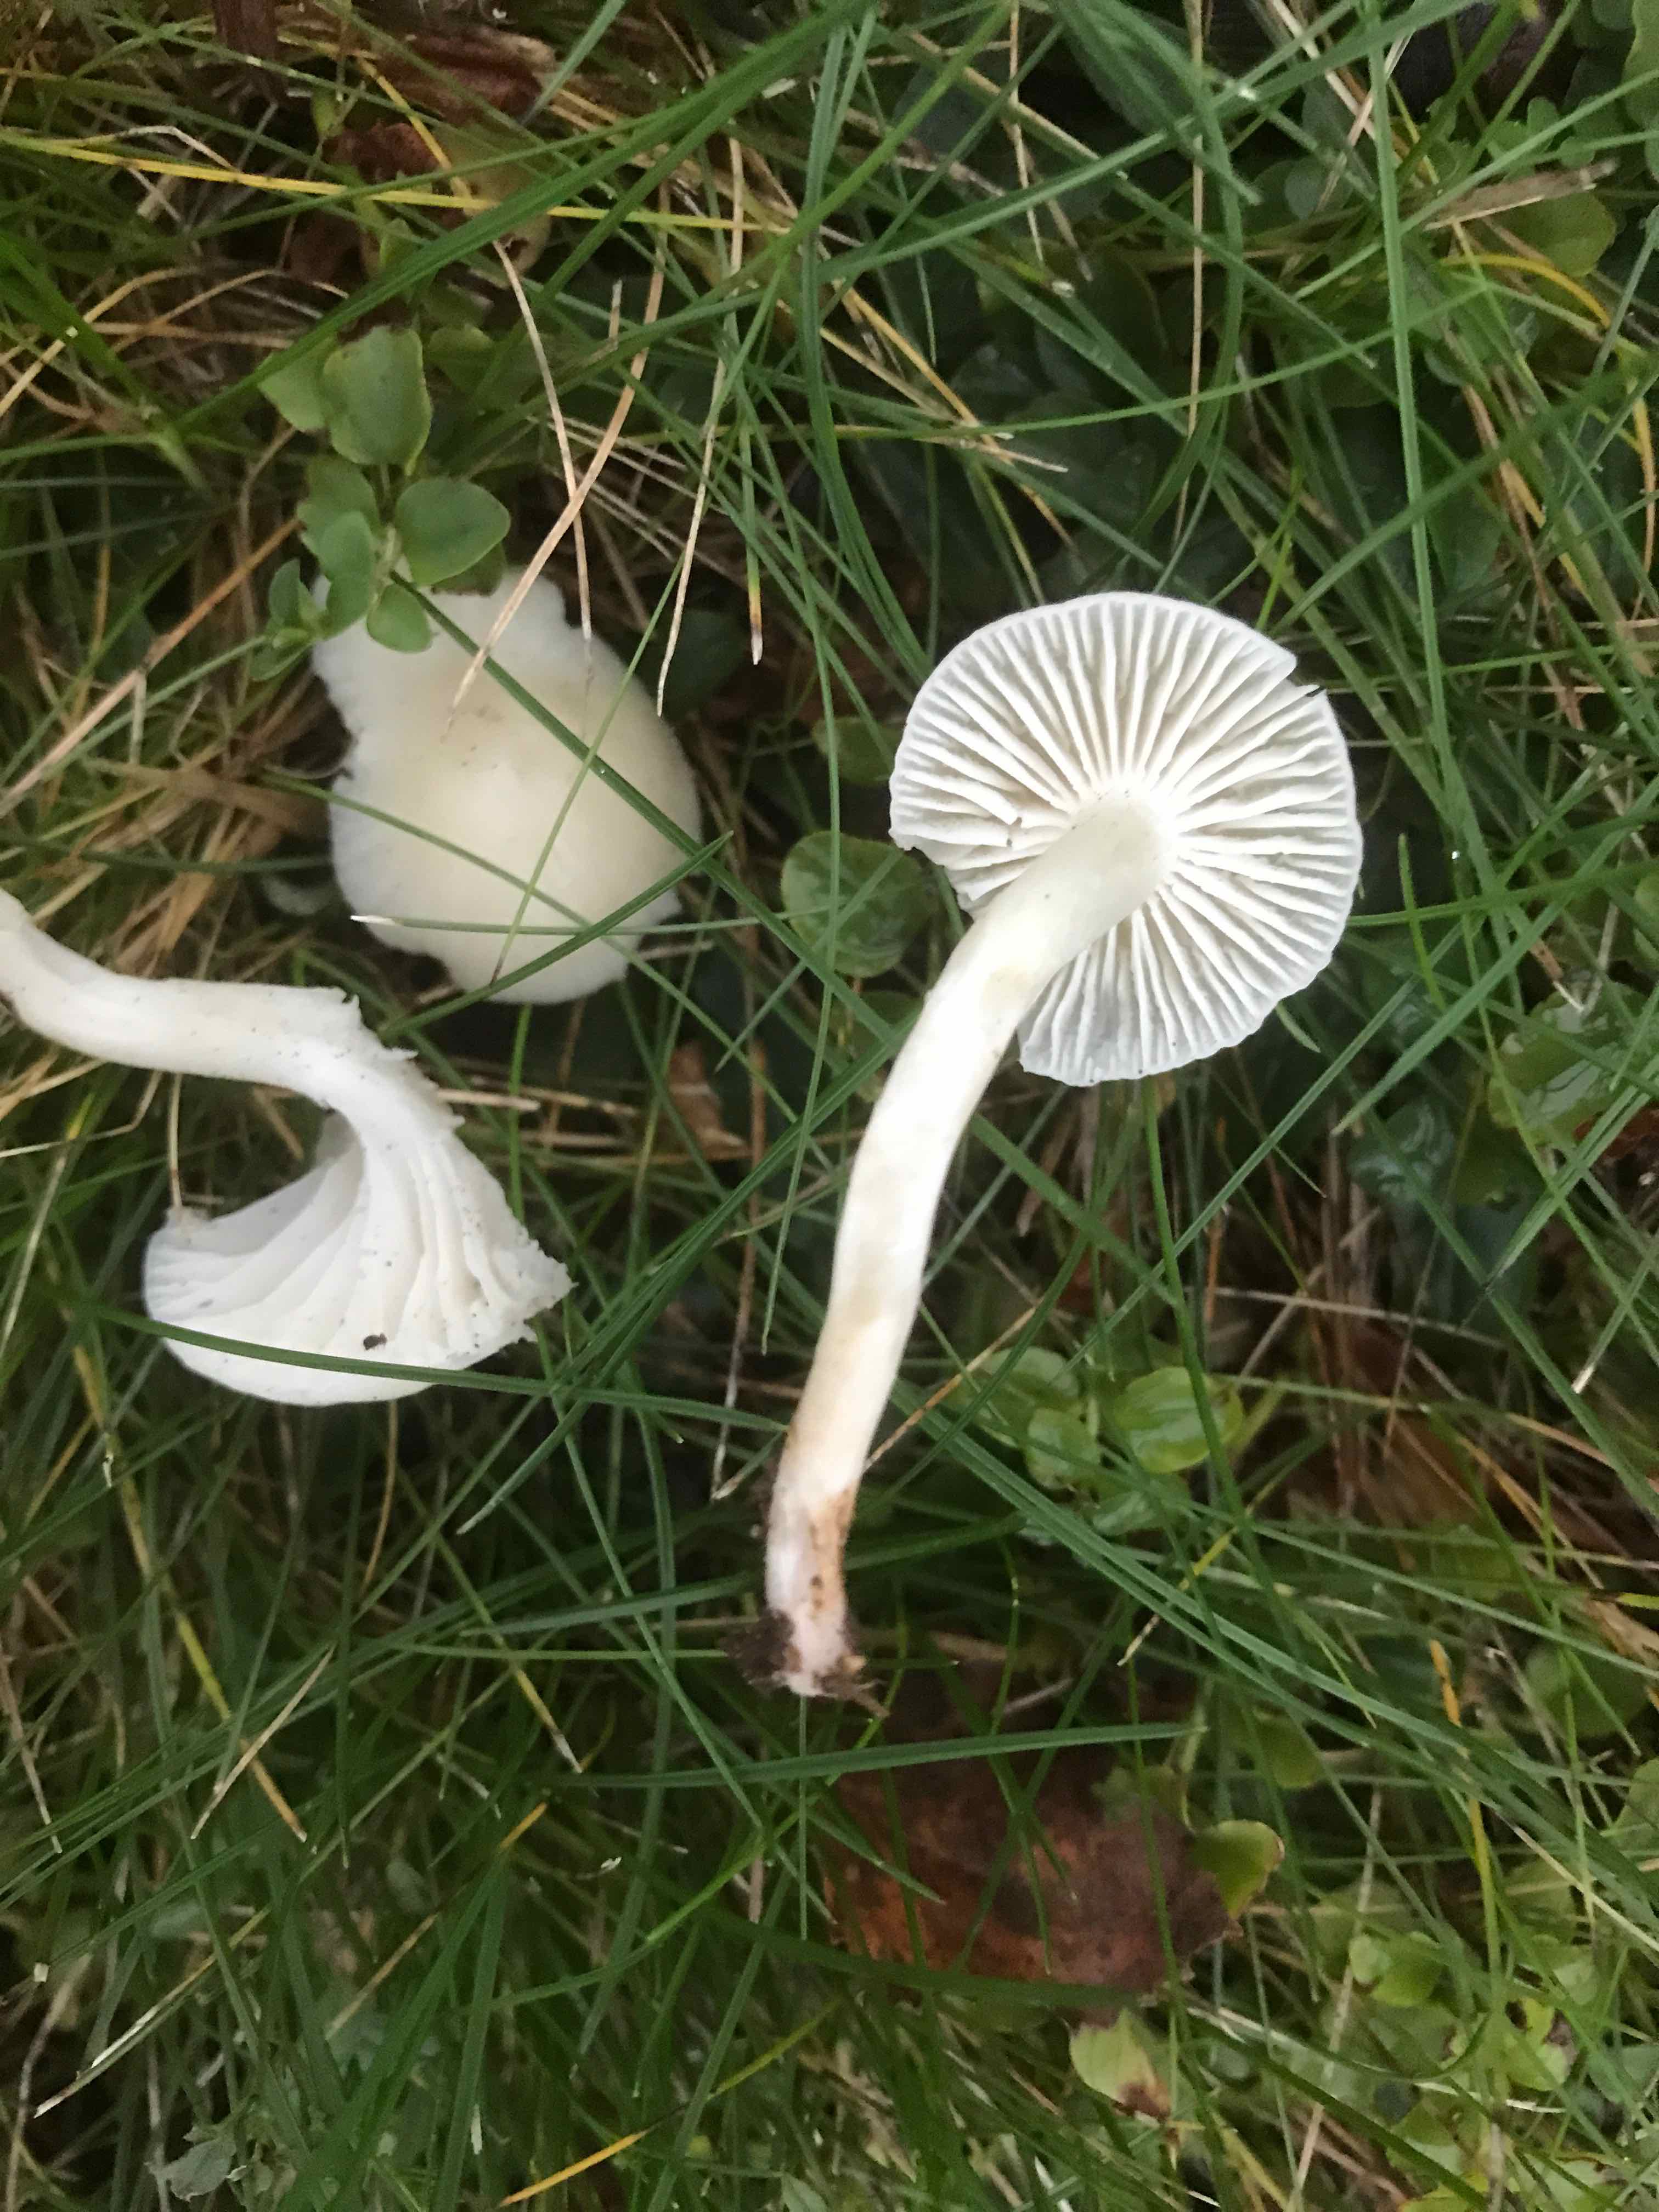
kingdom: Fungi
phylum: Basidiomycota
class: Agaricomycetes
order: Agaricales
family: Hygrophoraceae
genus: Cuphophyllus
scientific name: Cuphophyllus virgineus
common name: snehvid vokshat
